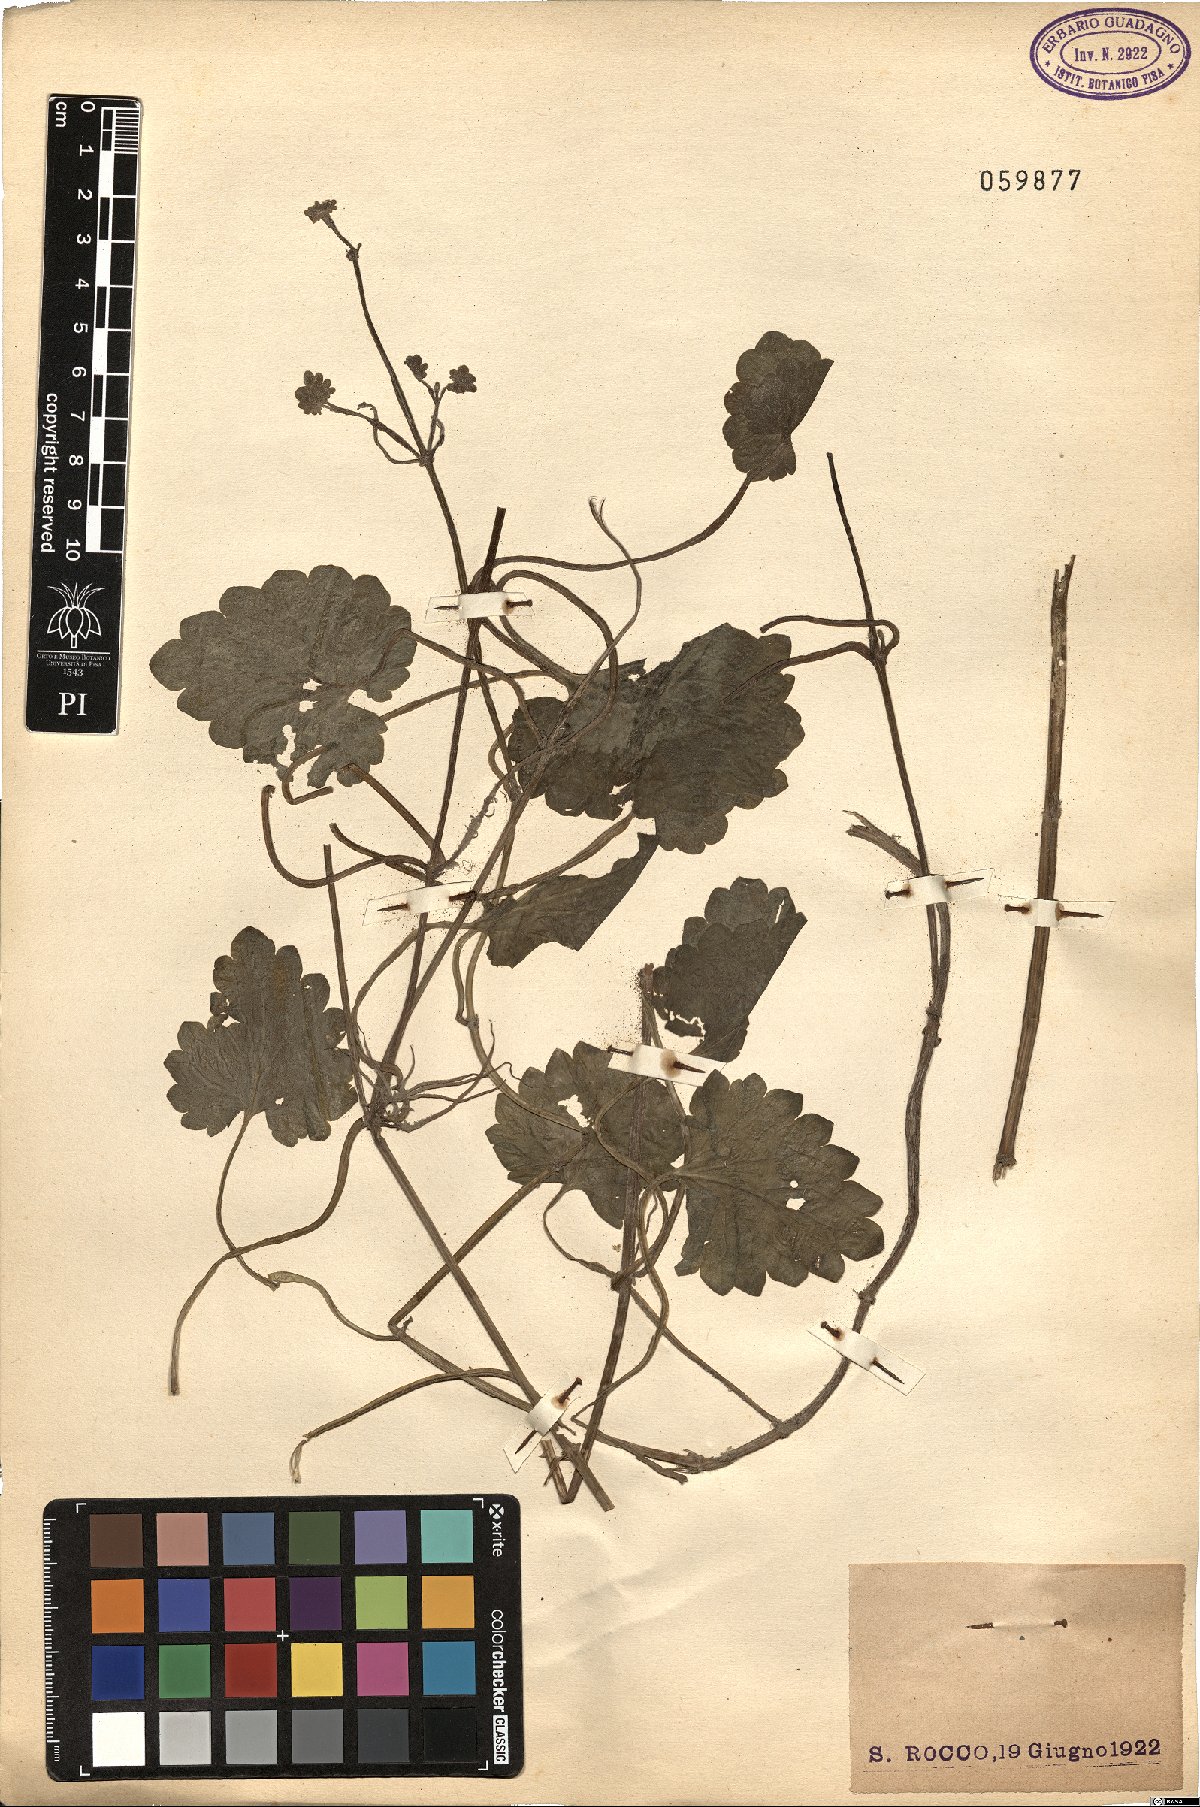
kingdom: Plantae
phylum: Tracheophyta
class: Magnoliopsida
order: Ranunculales
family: Ranunculaceae
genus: Ranunculus
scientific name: Ranunculus
